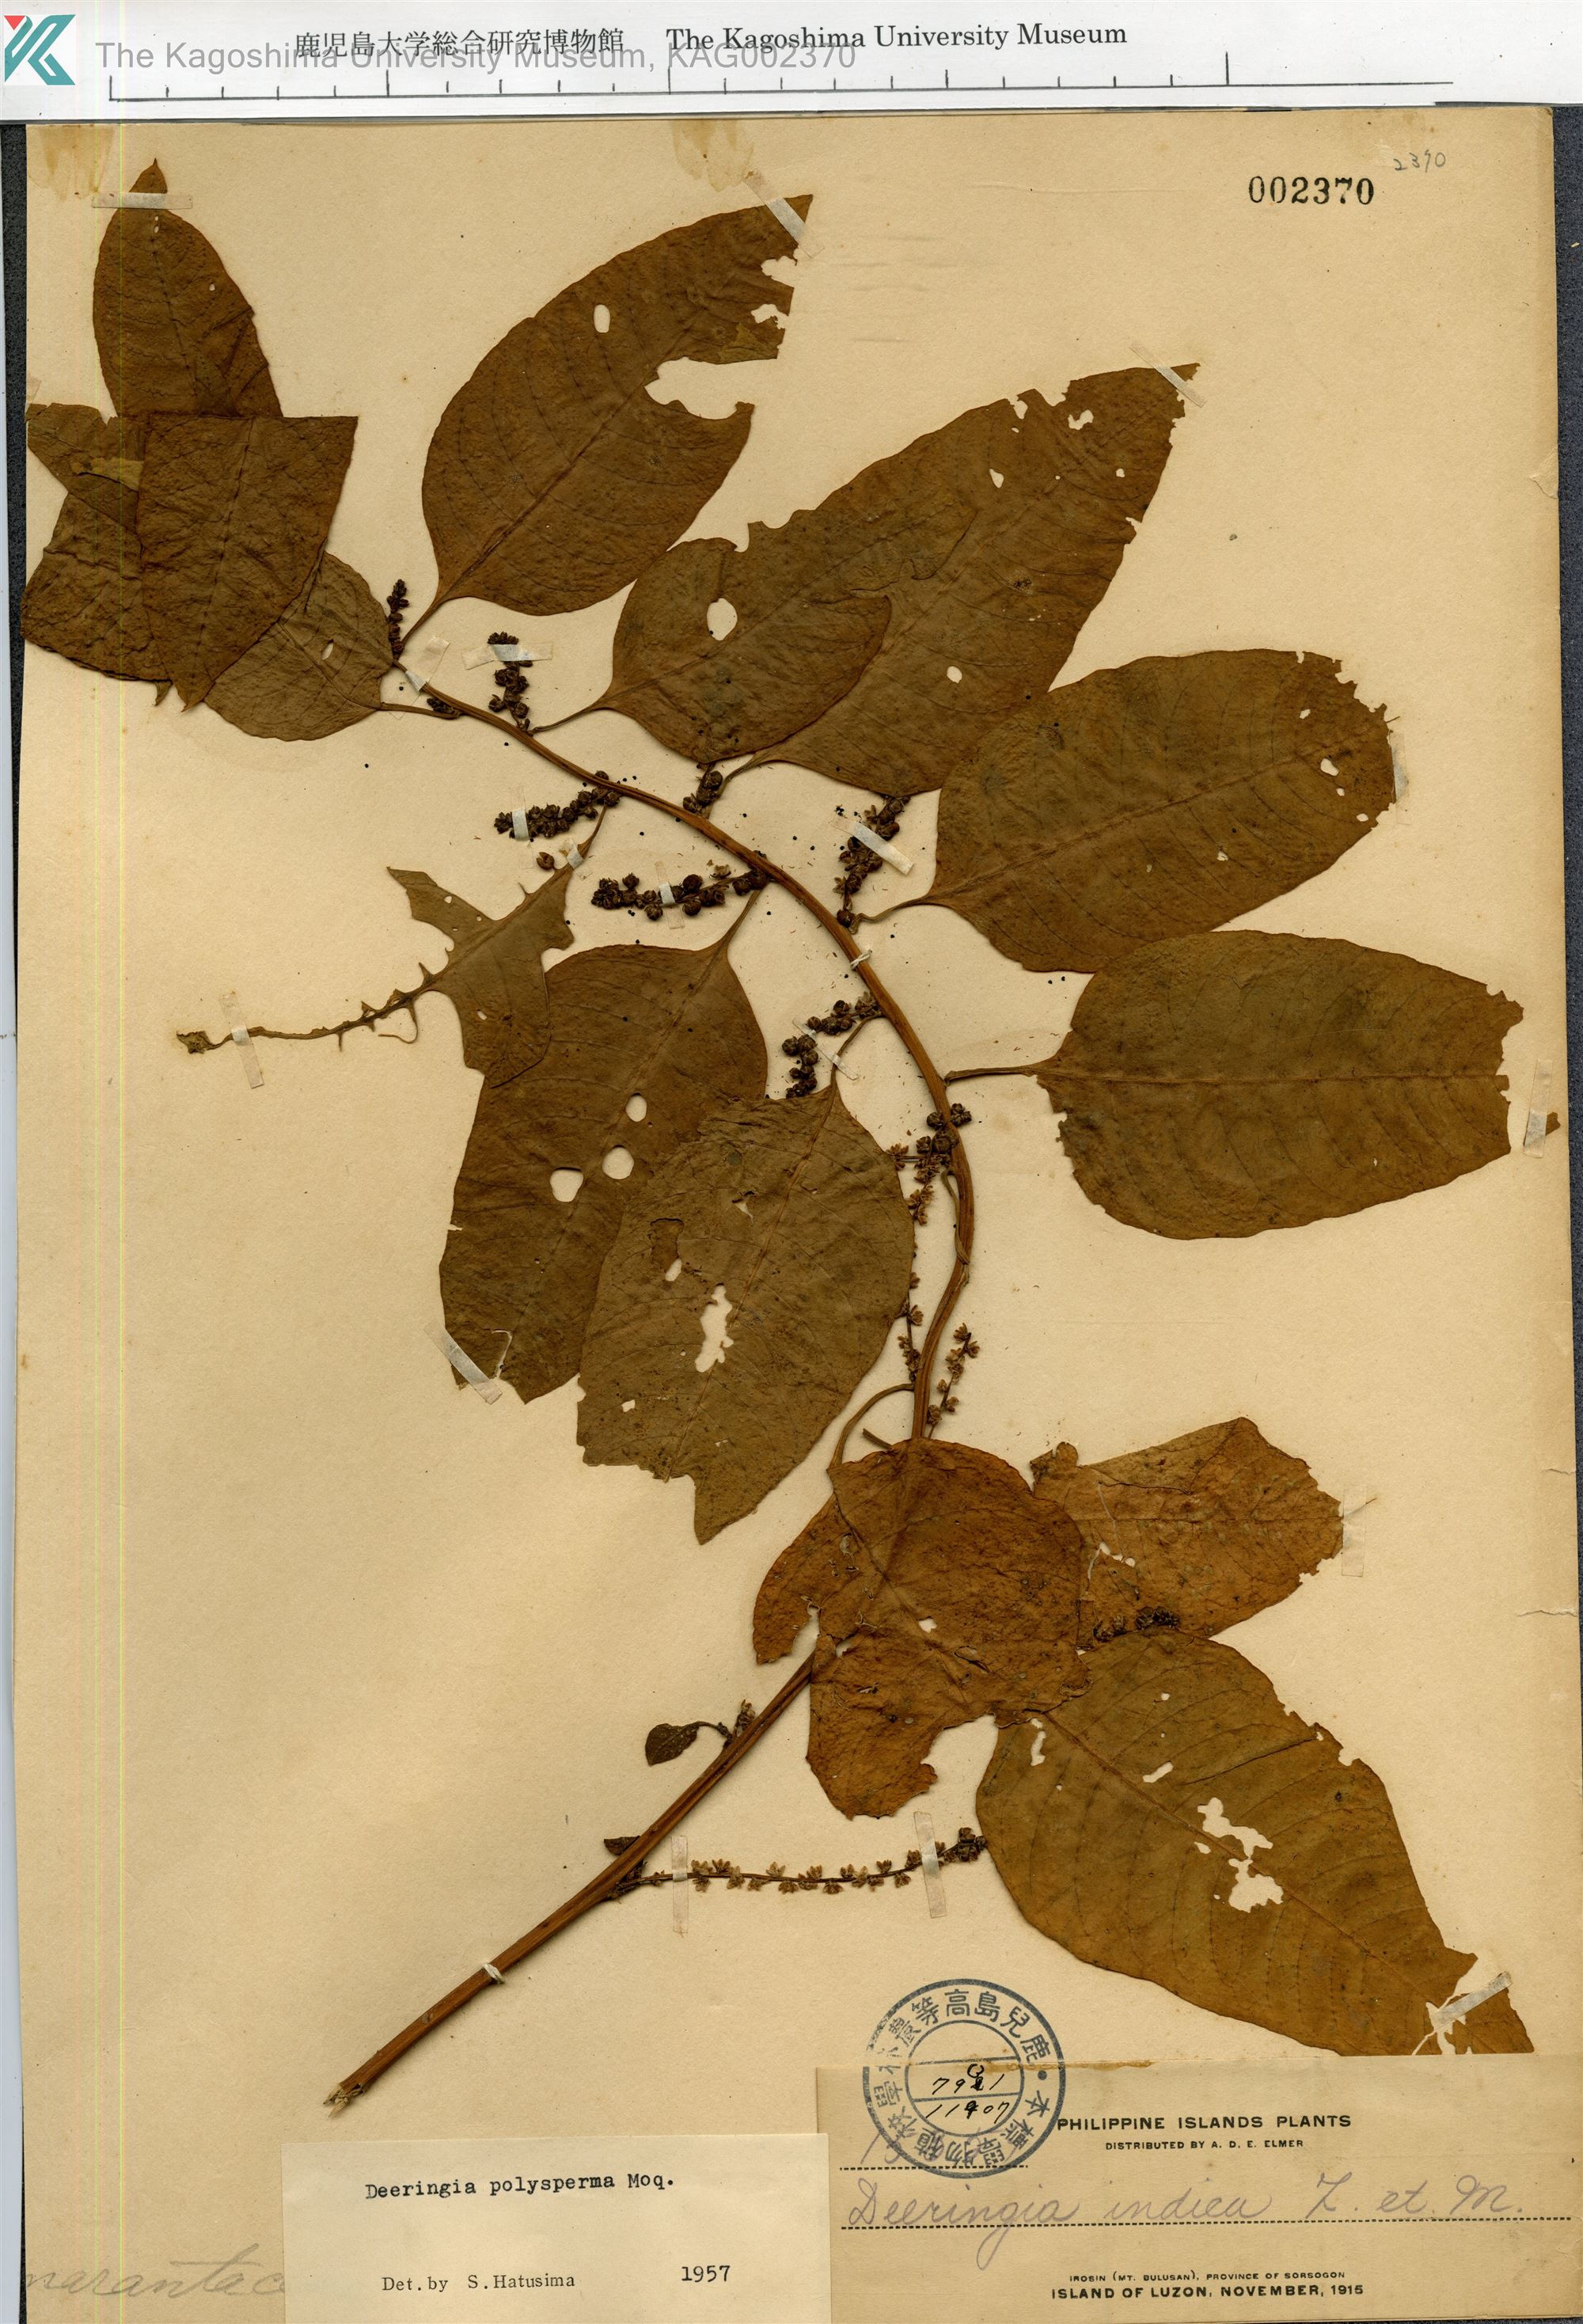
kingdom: Plantae
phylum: Tracheophyta
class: Magnoliopsida
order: Caryophyllales
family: Amaranthaceae
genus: Deeringia
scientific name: Deeringia polysperma
